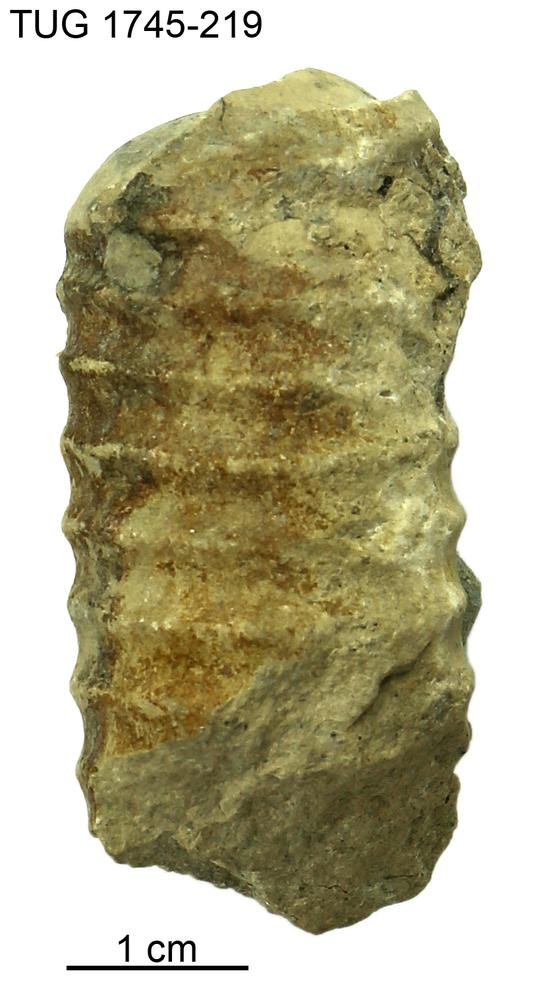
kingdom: Animalia
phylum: Mollusca
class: Cephalopoda
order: Orthocerida
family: Orthoceratidae
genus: Striatocycloceras
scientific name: Striatocycloceras Orthoceras arcuolyratum
